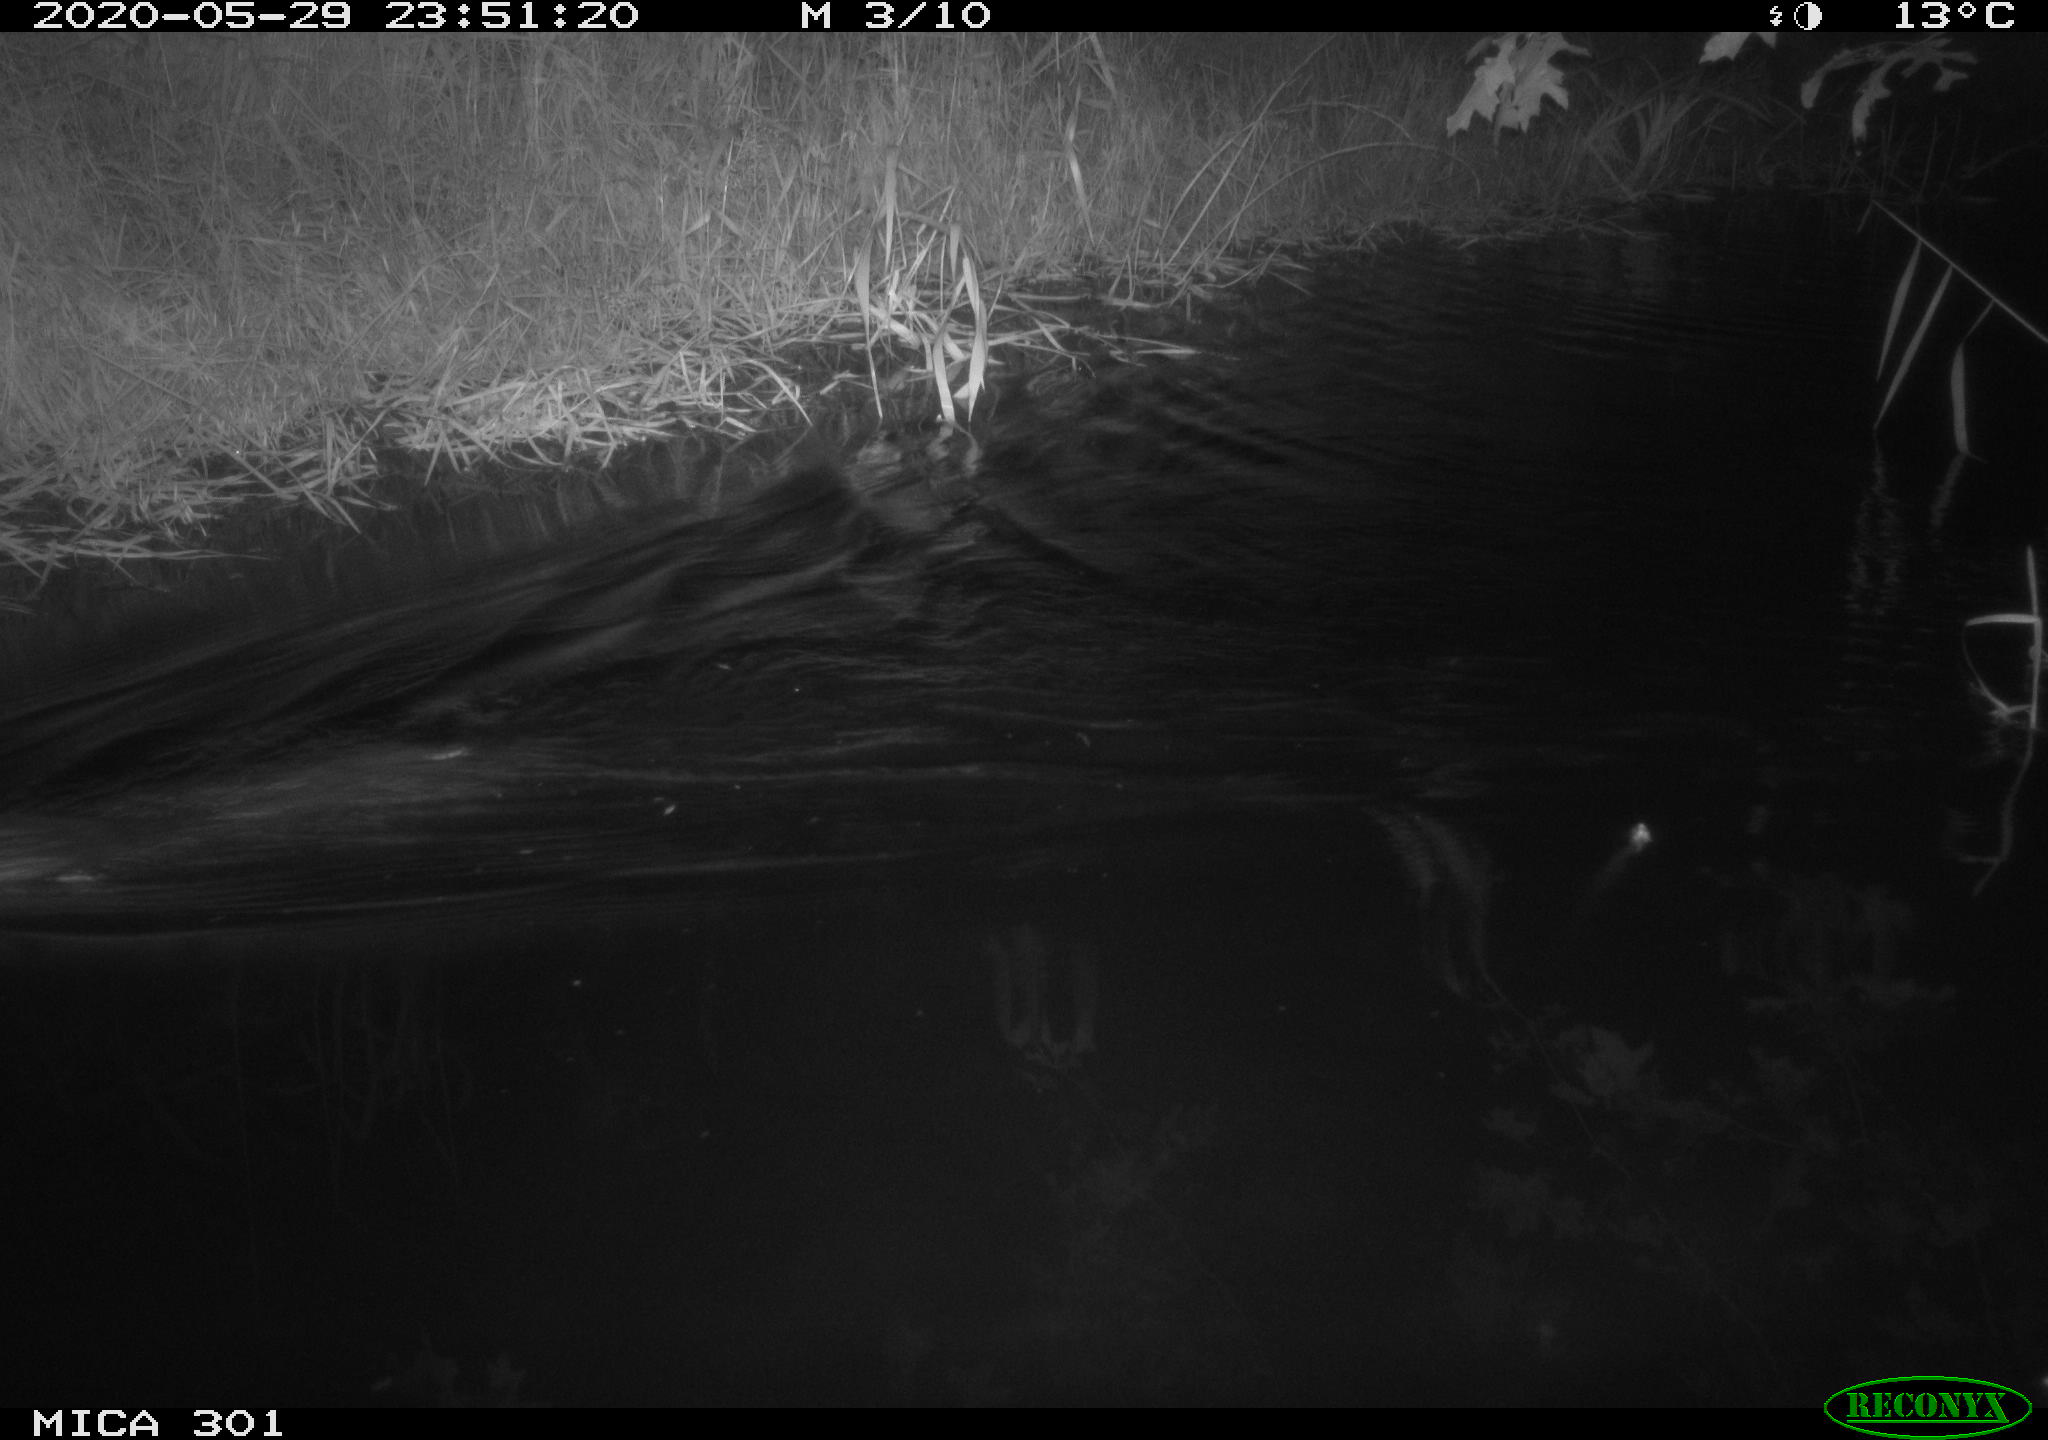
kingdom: Animalia
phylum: Chordata
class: Mammalia
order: Rodentia
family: Castoridae
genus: Castor
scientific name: Castor fiber
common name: Eurasian beaver
